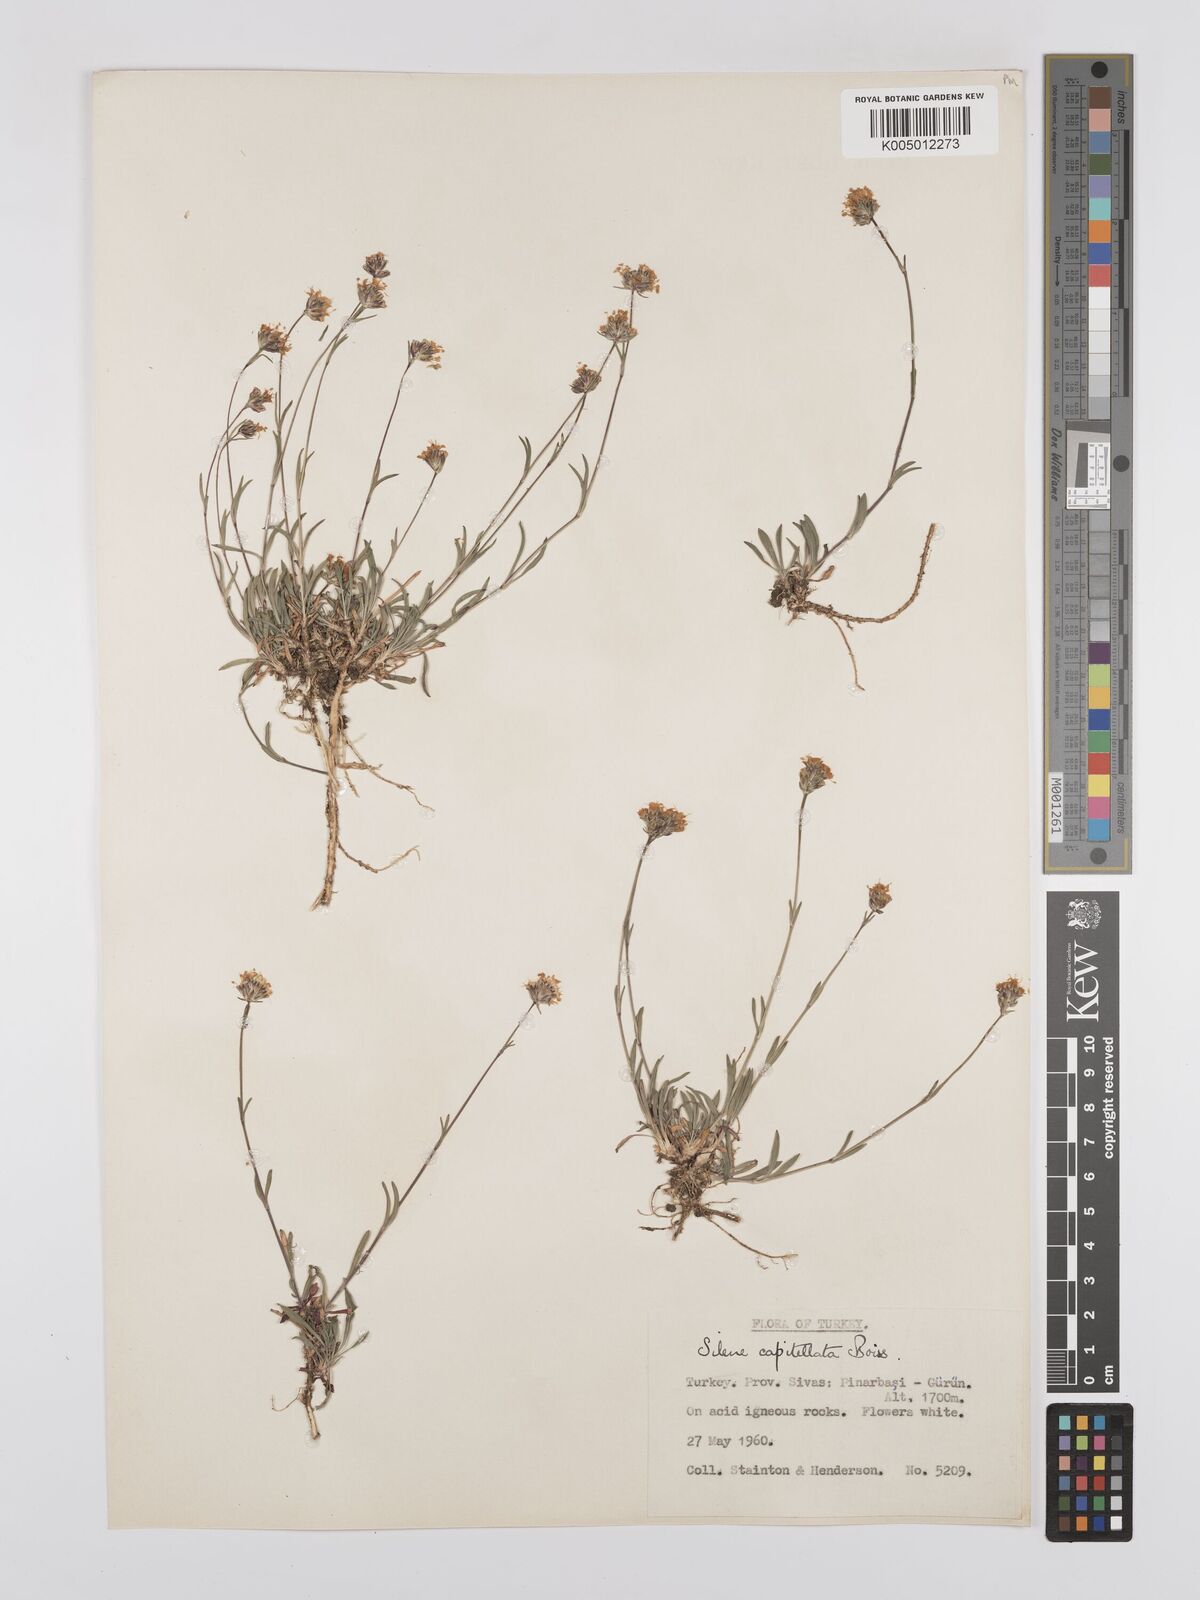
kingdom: Plantae
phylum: Tracheophyta
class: Magnoliopsida
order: Caryophyllales
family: Caryophyllaceae
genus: Silene
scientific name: Silene capitellata
